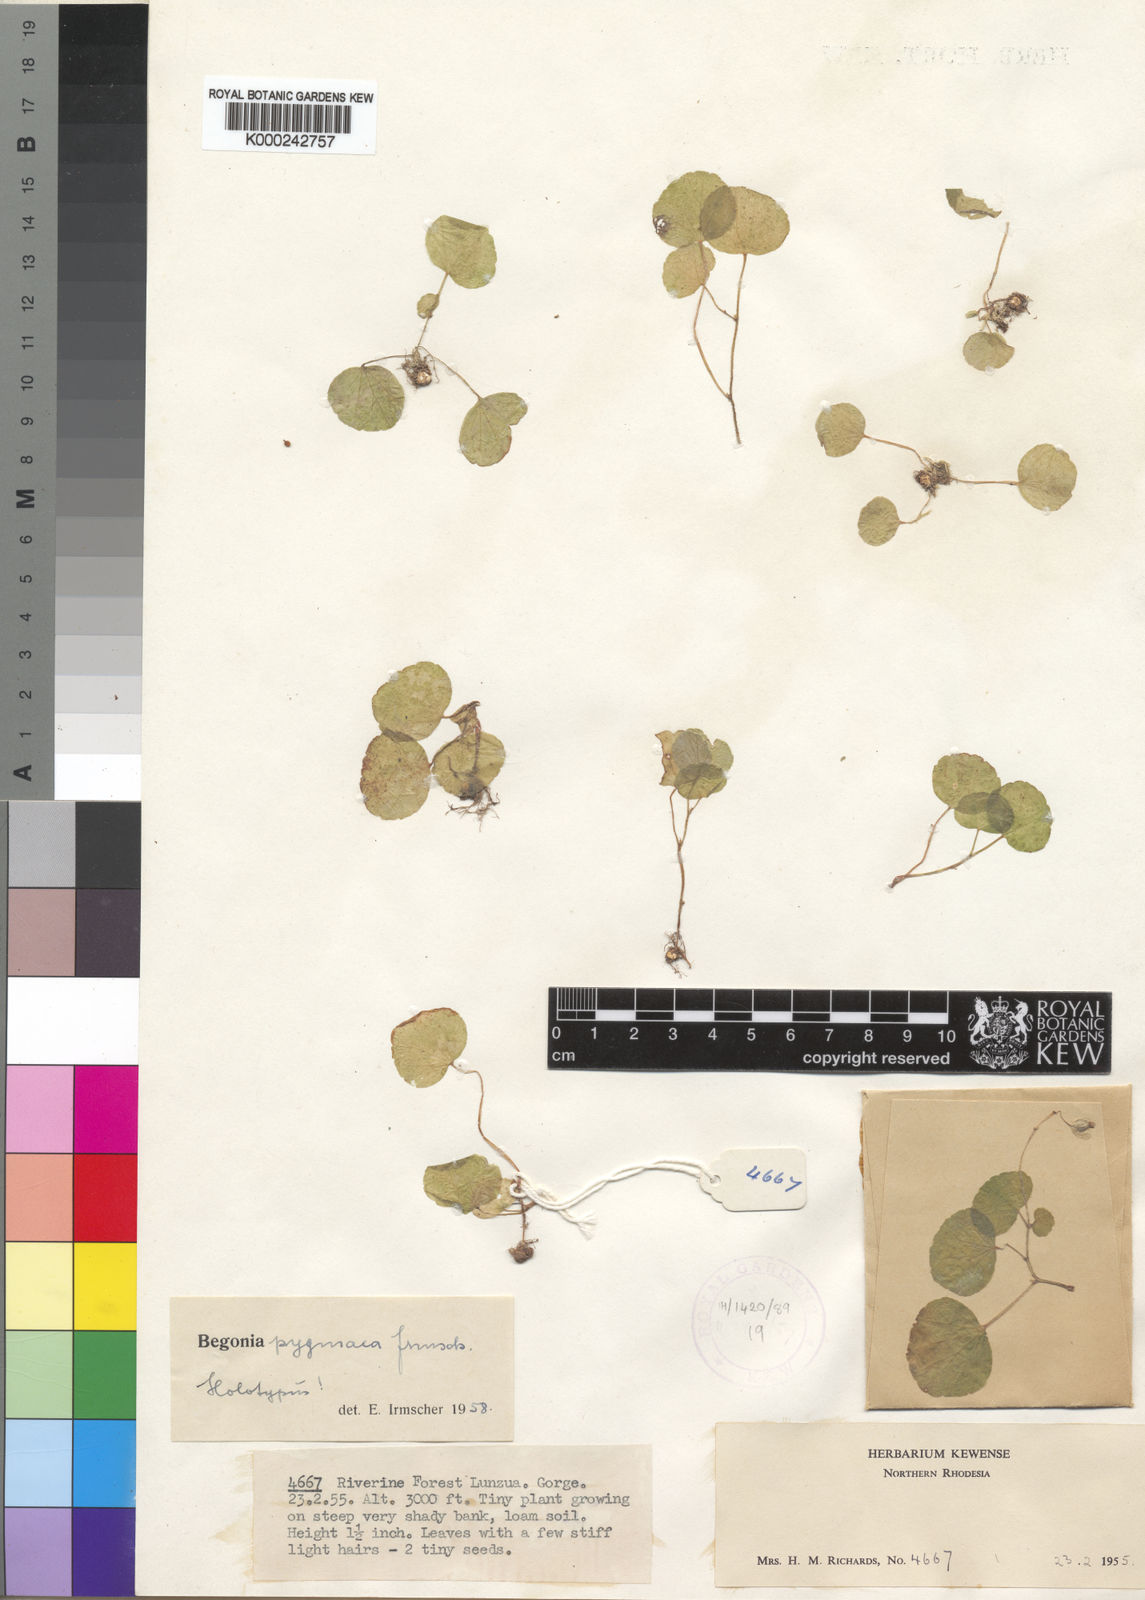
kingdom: Plantae
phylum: Tracheophyta
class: Magnoliopsida
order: Cucurbitales
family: Begoniaceae
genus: Begonia
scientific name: Begonia sonderiana
